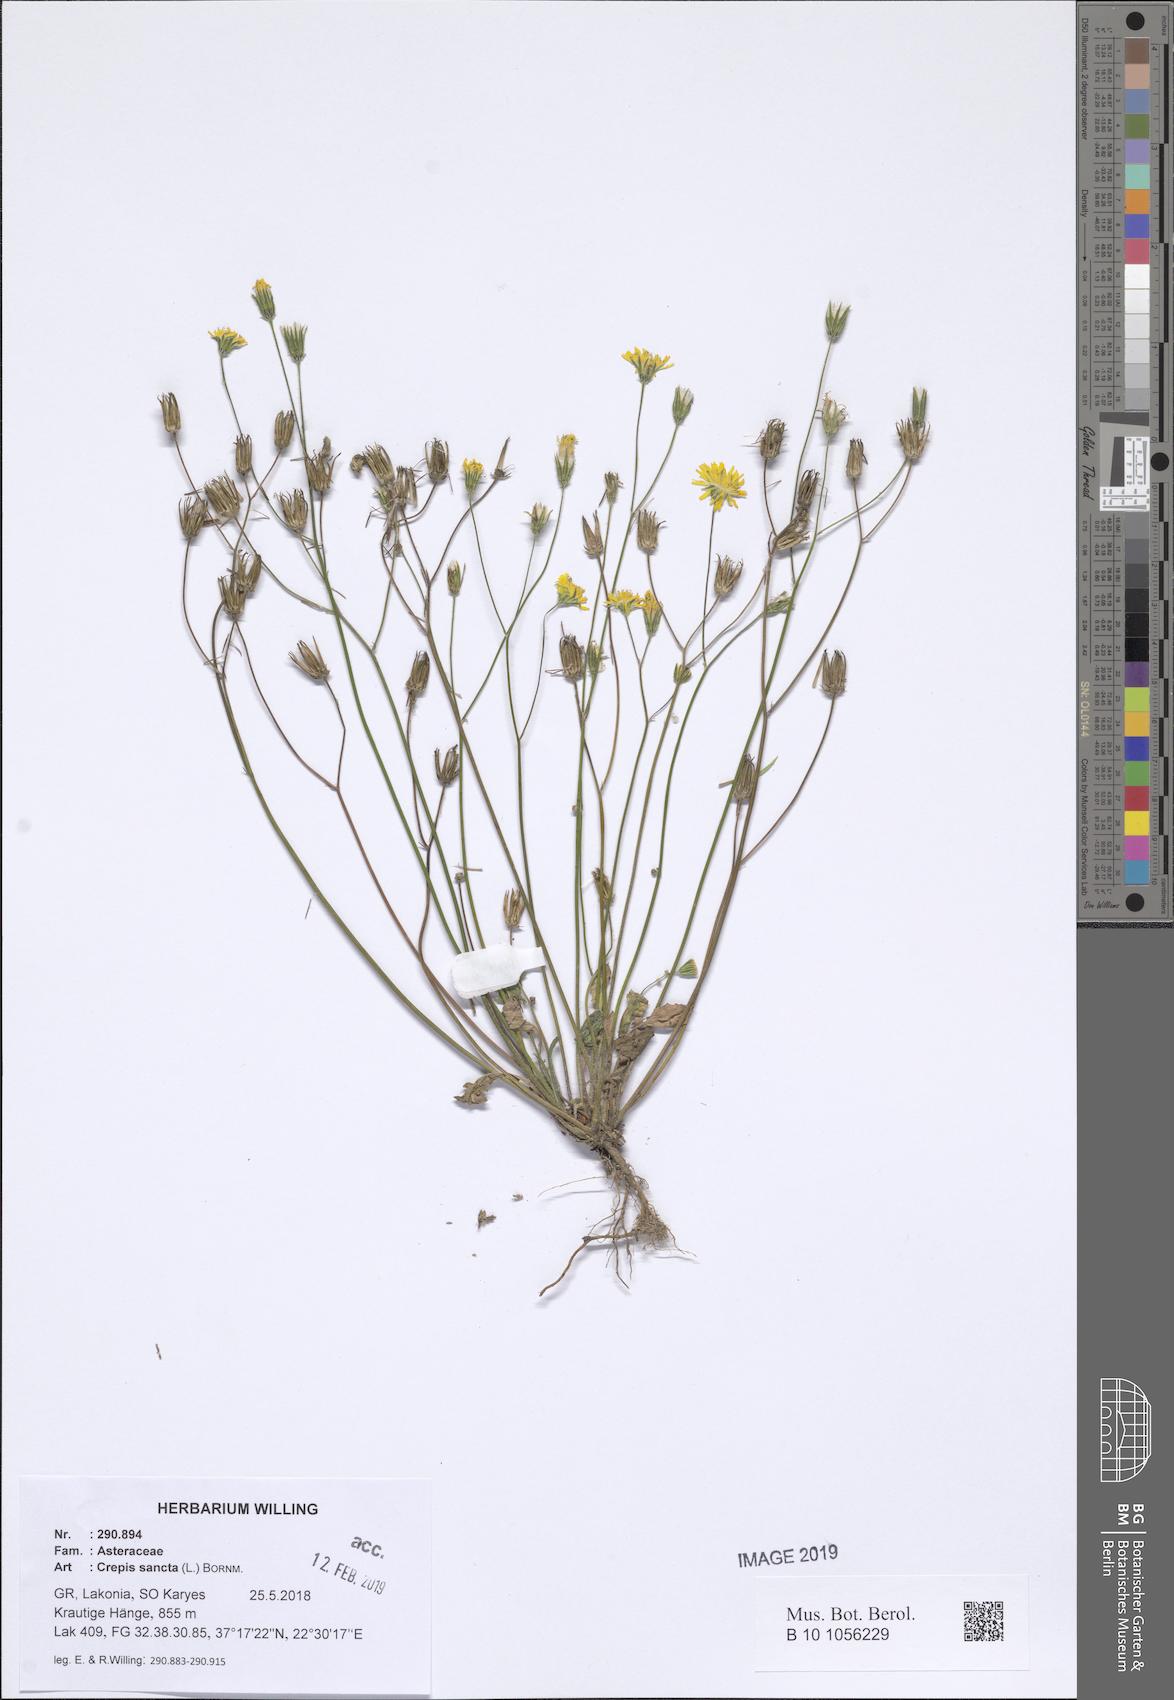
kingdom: Plantae
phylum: Tracheophyta
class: Magnoliopsida
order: Asterales
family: Asteraceae
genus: Crepis
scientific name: Crepis sancta
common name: Hawk's-beard
